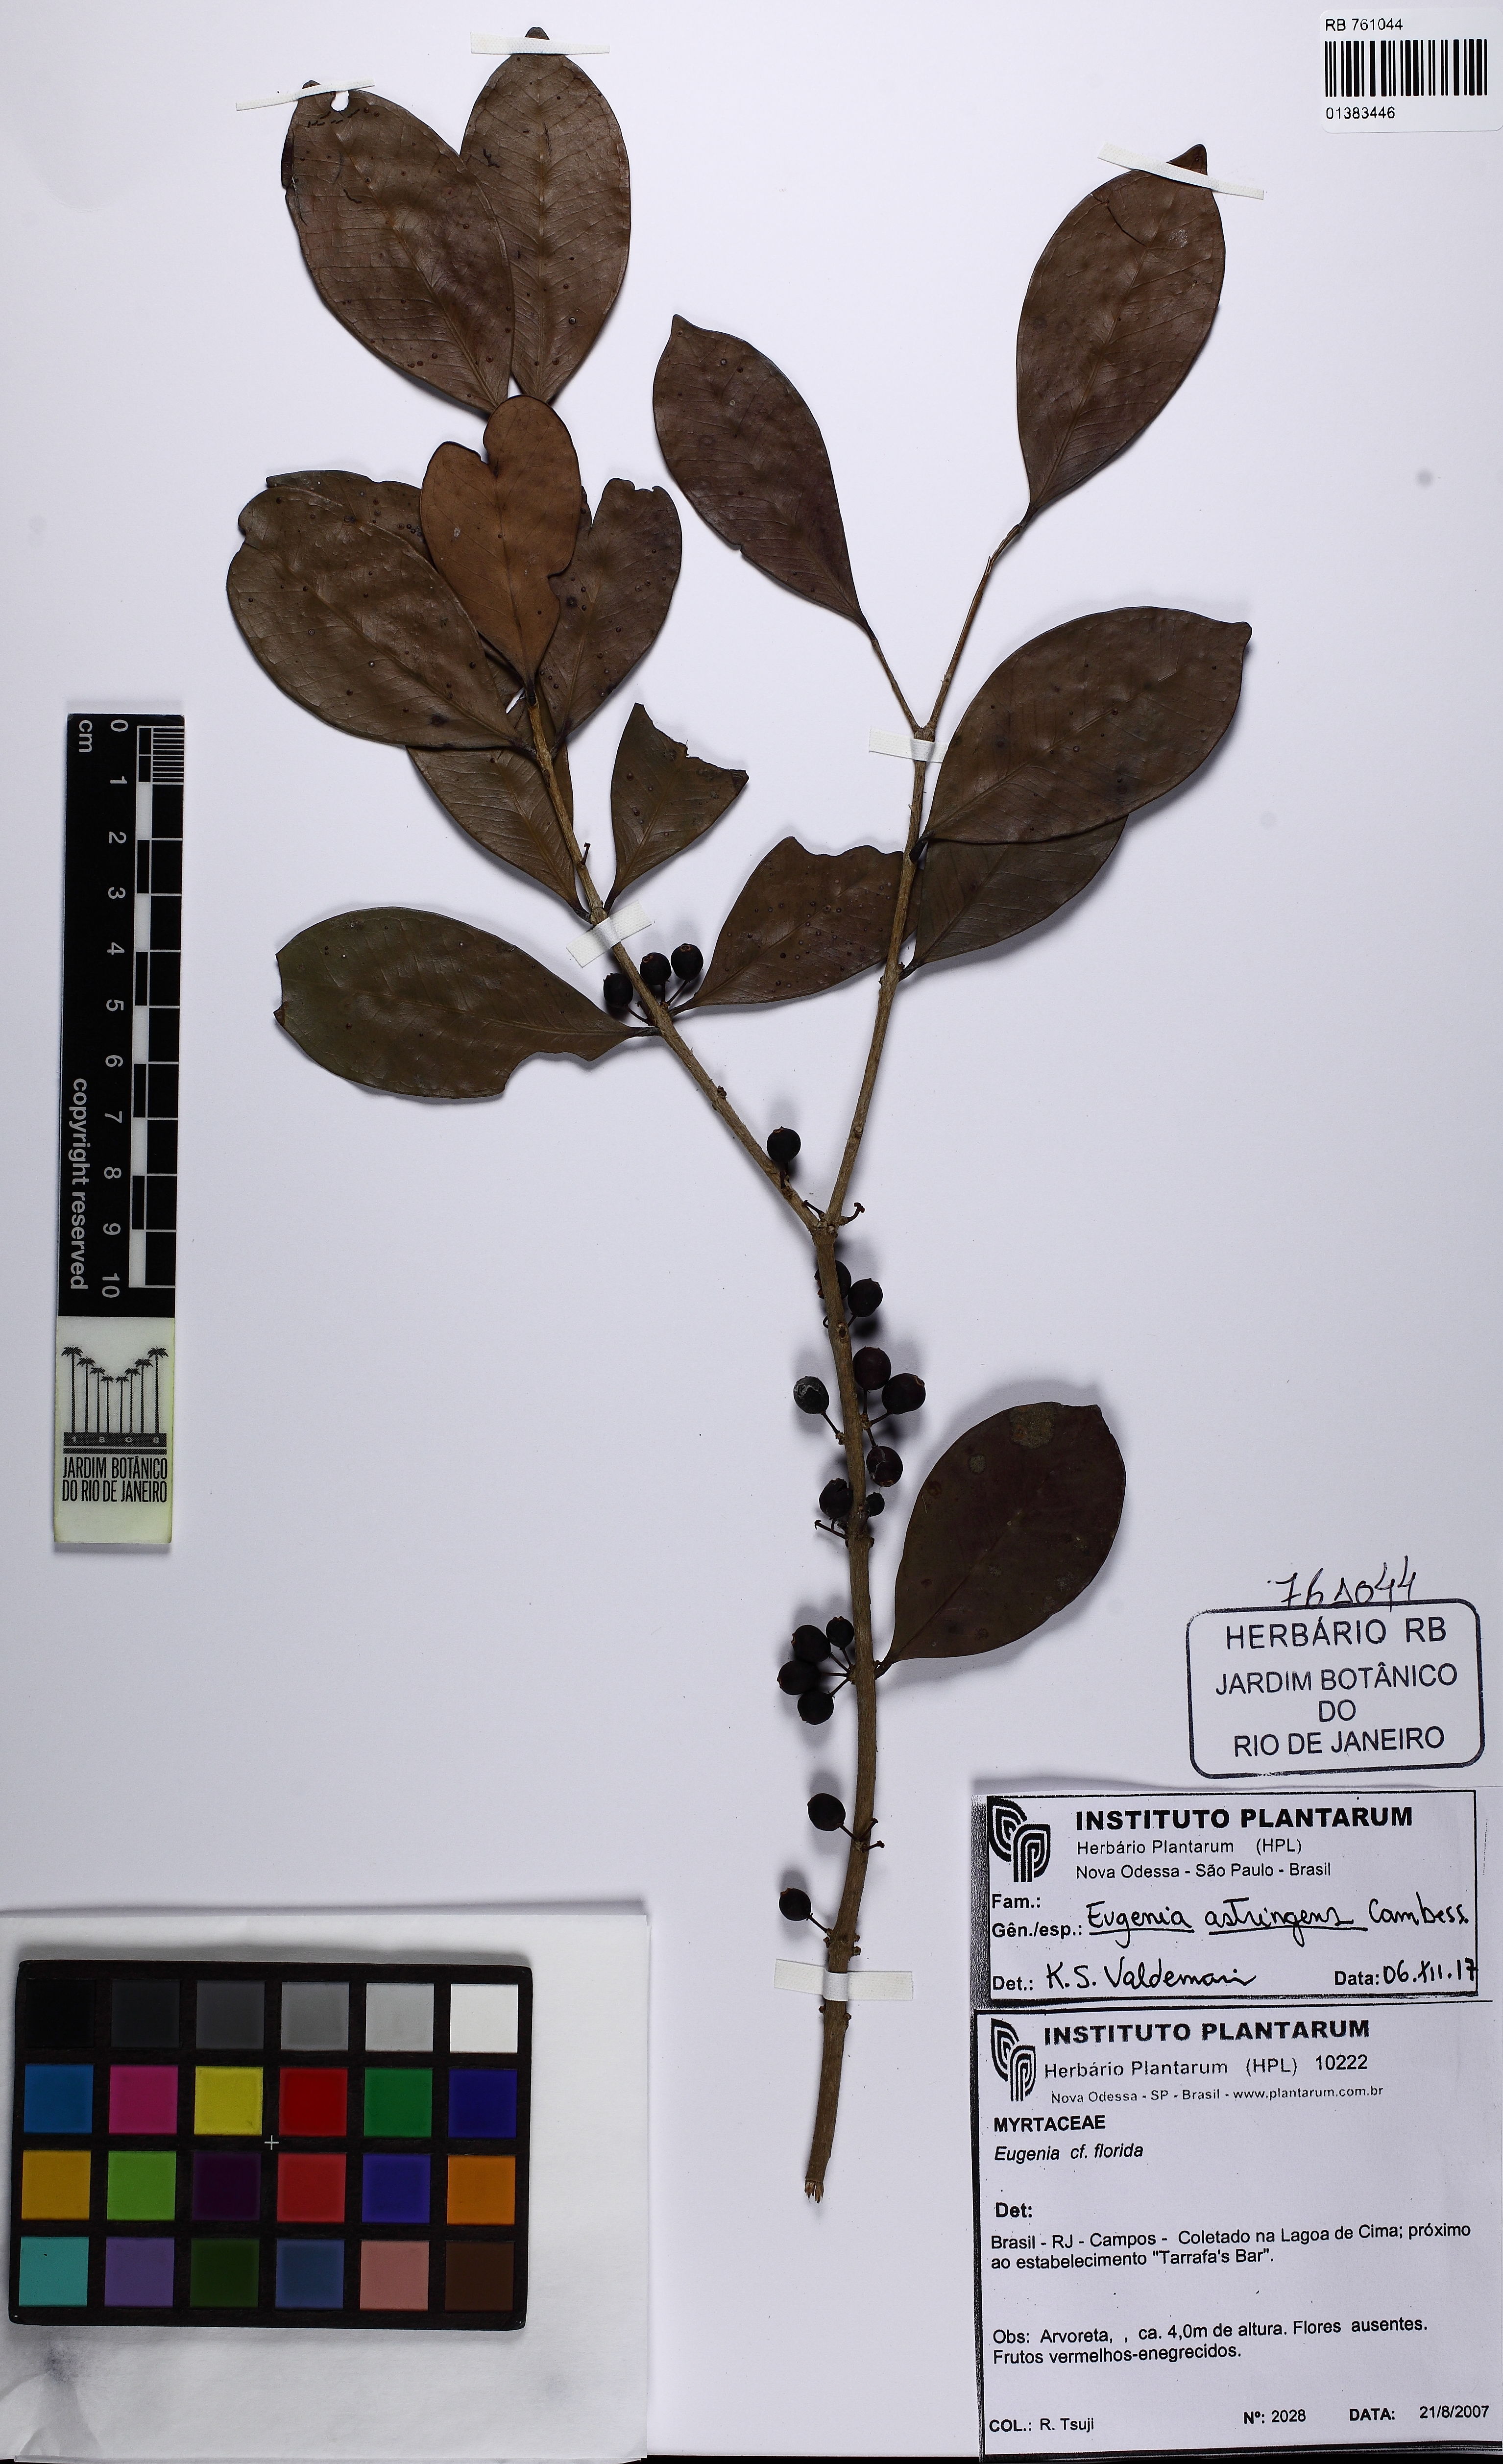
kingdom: Plantae
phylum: Tracheophyta
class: Magnoliopsida
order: Myrtales
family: Myrtaceae
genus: Eugenia
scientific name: Eugenia astringens
